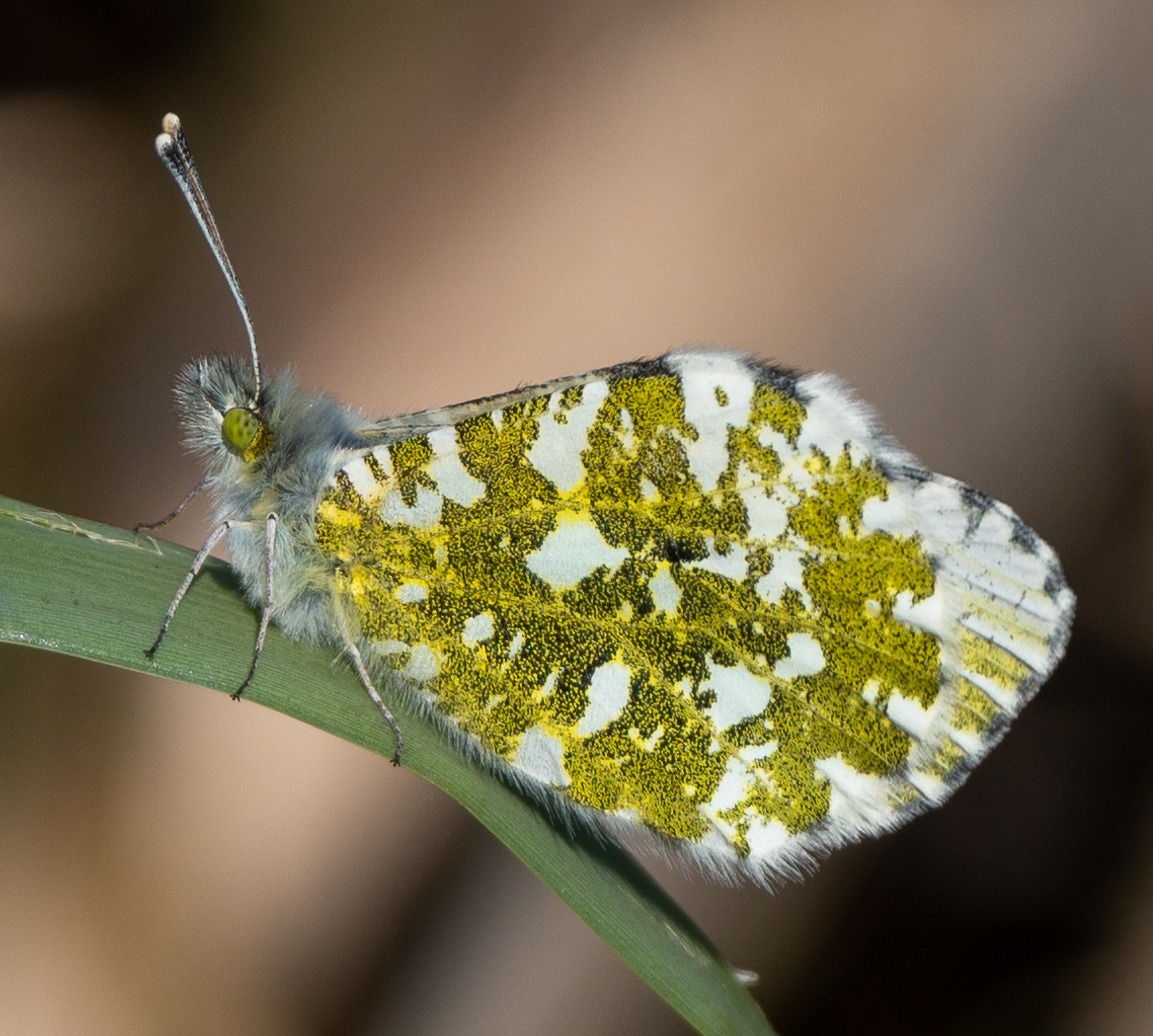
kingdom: Animalia
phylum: Arthropoda
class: Insecta
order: Lepidoptera
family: Pieridae
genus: Anthocharis
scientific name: Anthocharis cardamines
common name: Aurora
